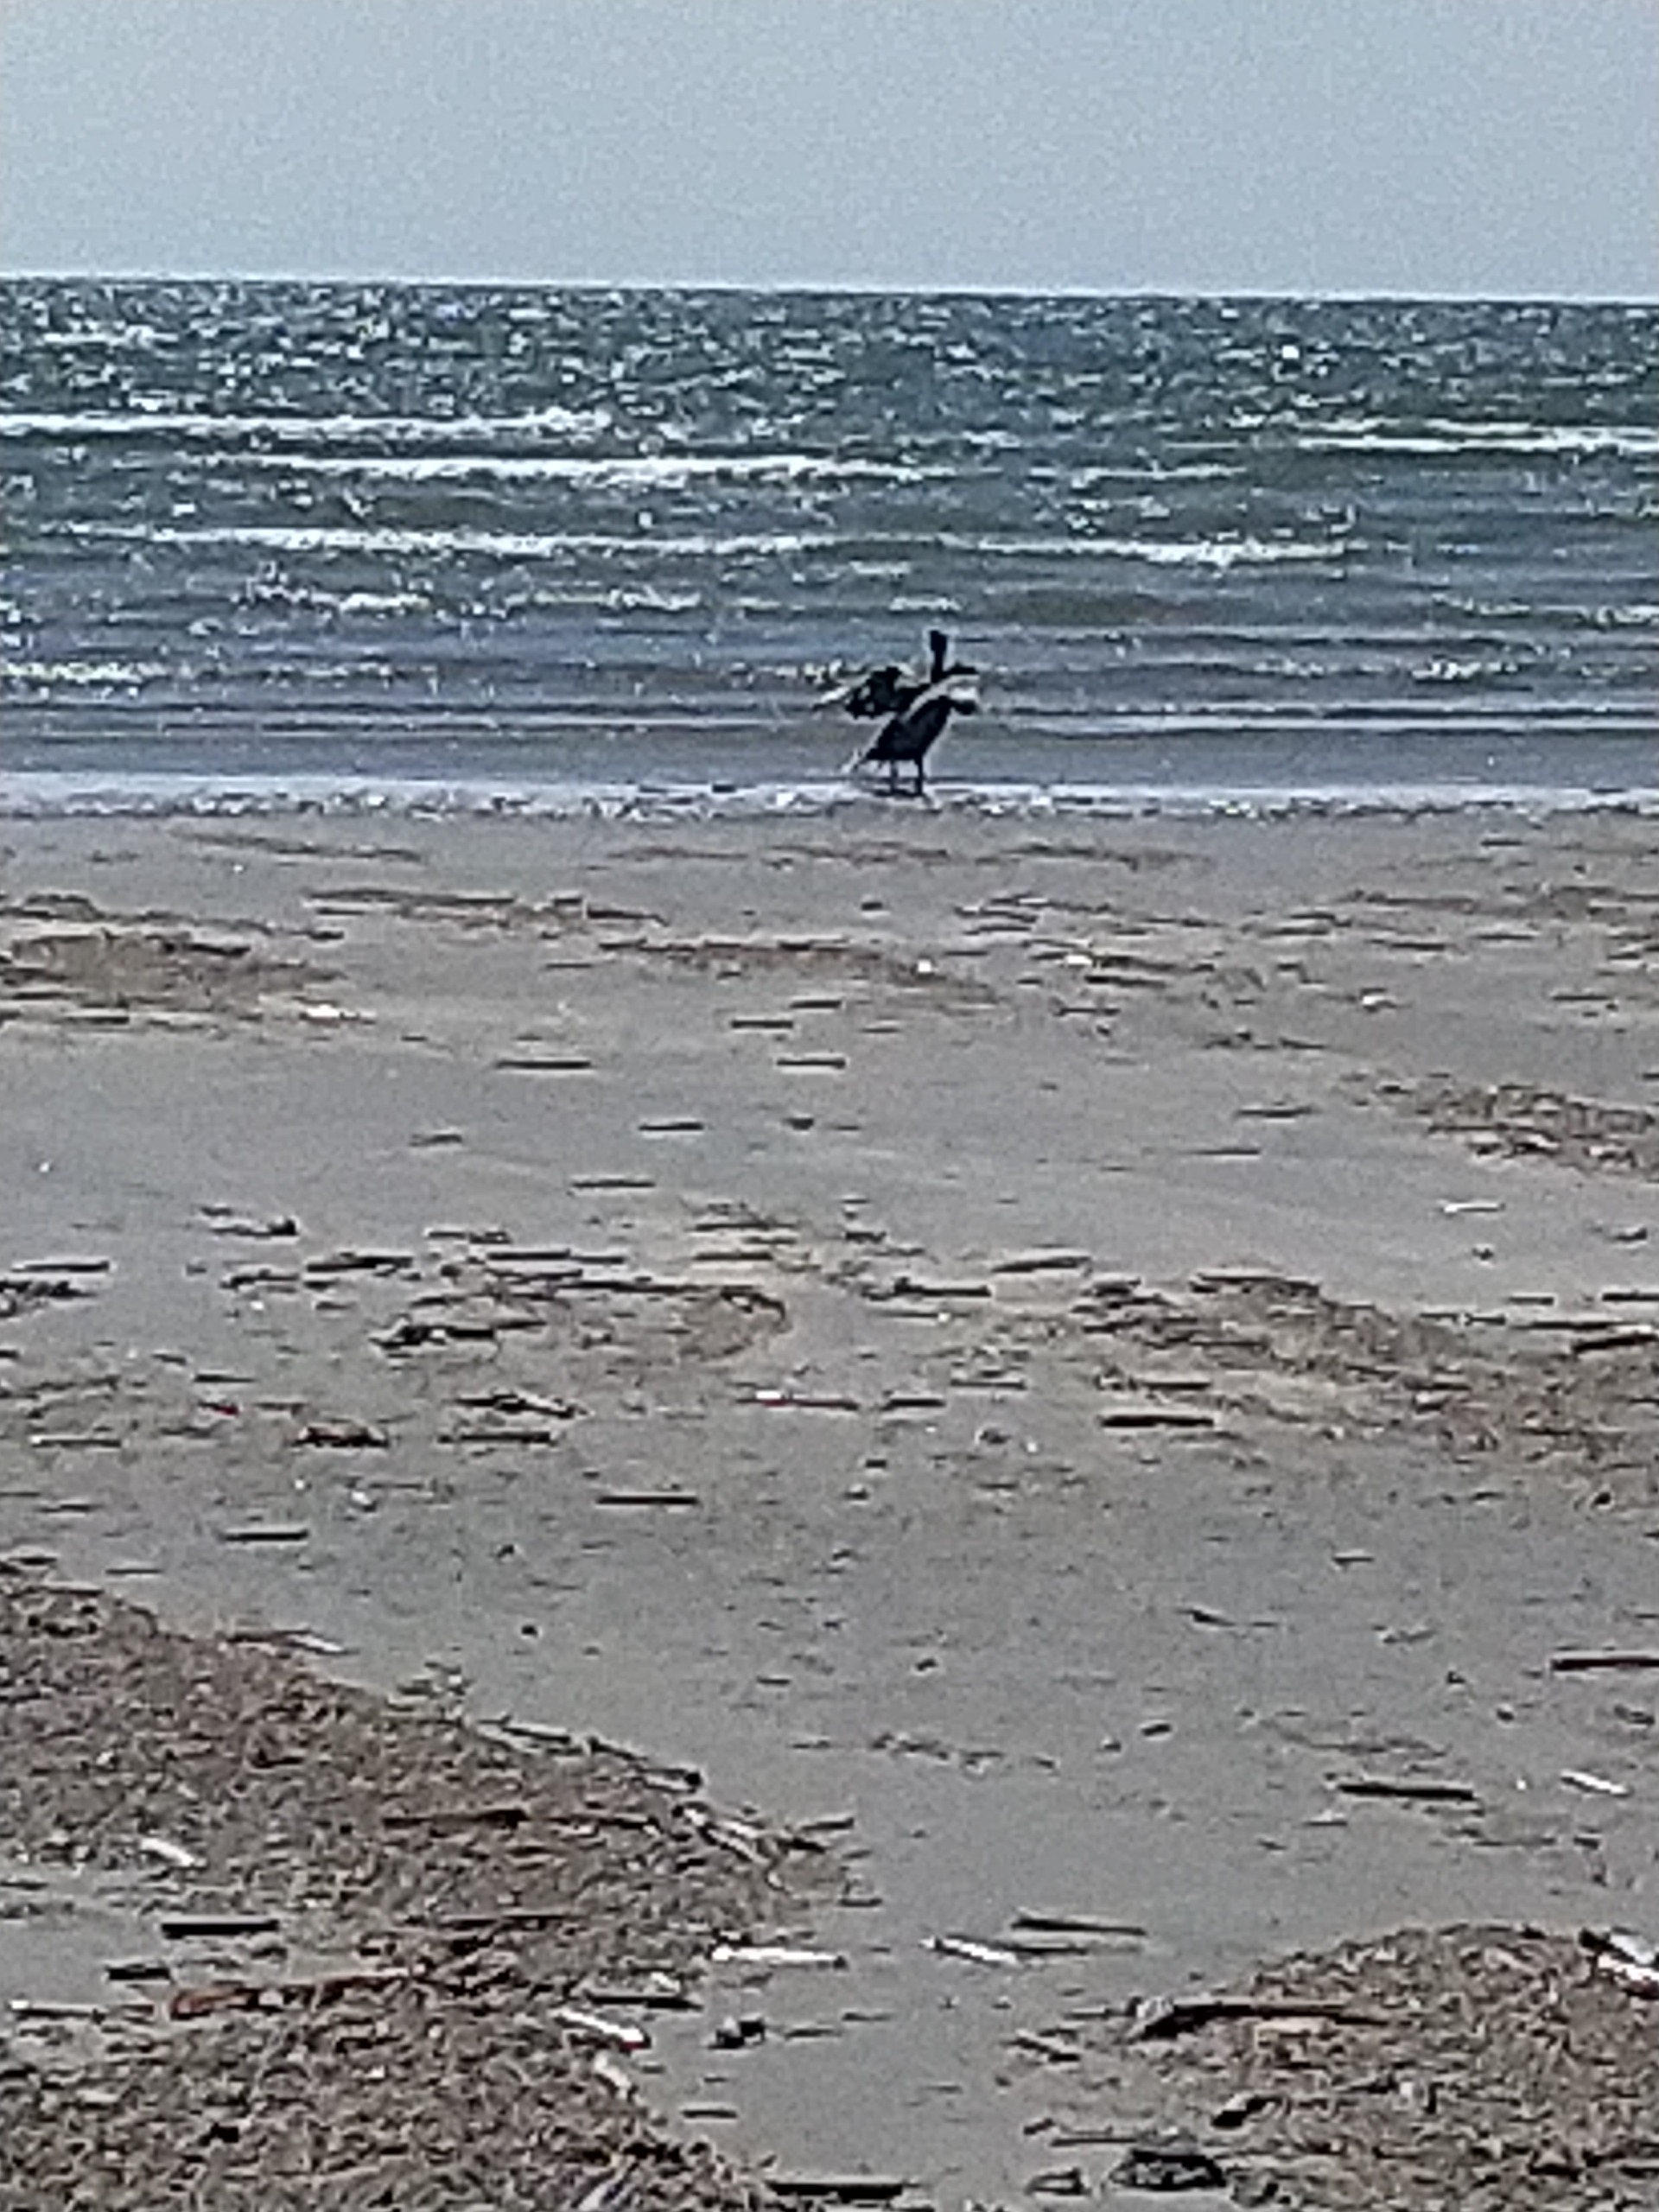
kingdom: Animalia
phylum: Chordata
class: Aves
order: Suliformes
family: Phalacrocoracidae
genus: Phalacrocorax
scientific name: Phalacrocorax carbo
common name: Skarv
